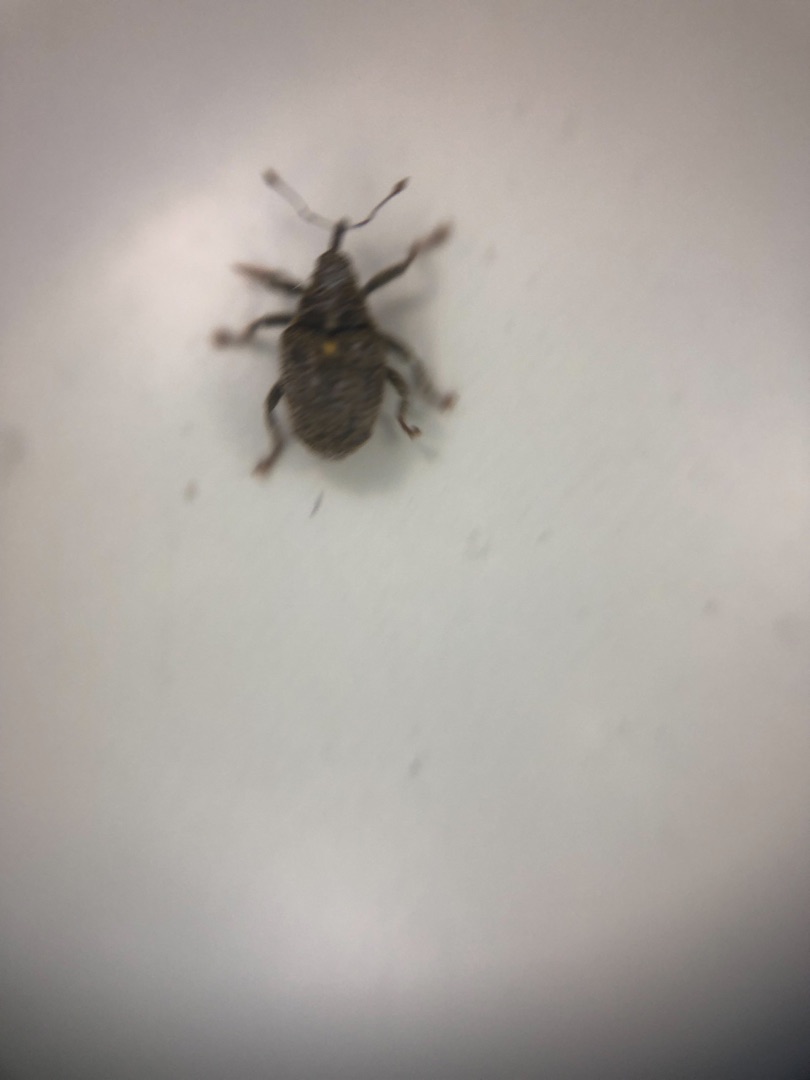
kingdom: Animalia
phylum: Arthropoda
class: Insecta
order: Coleoptera
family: Curculionidae
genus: Ceutorhynchus
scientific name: Ceutorhynchus pallidactylus
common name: Bladribbesnudebille
